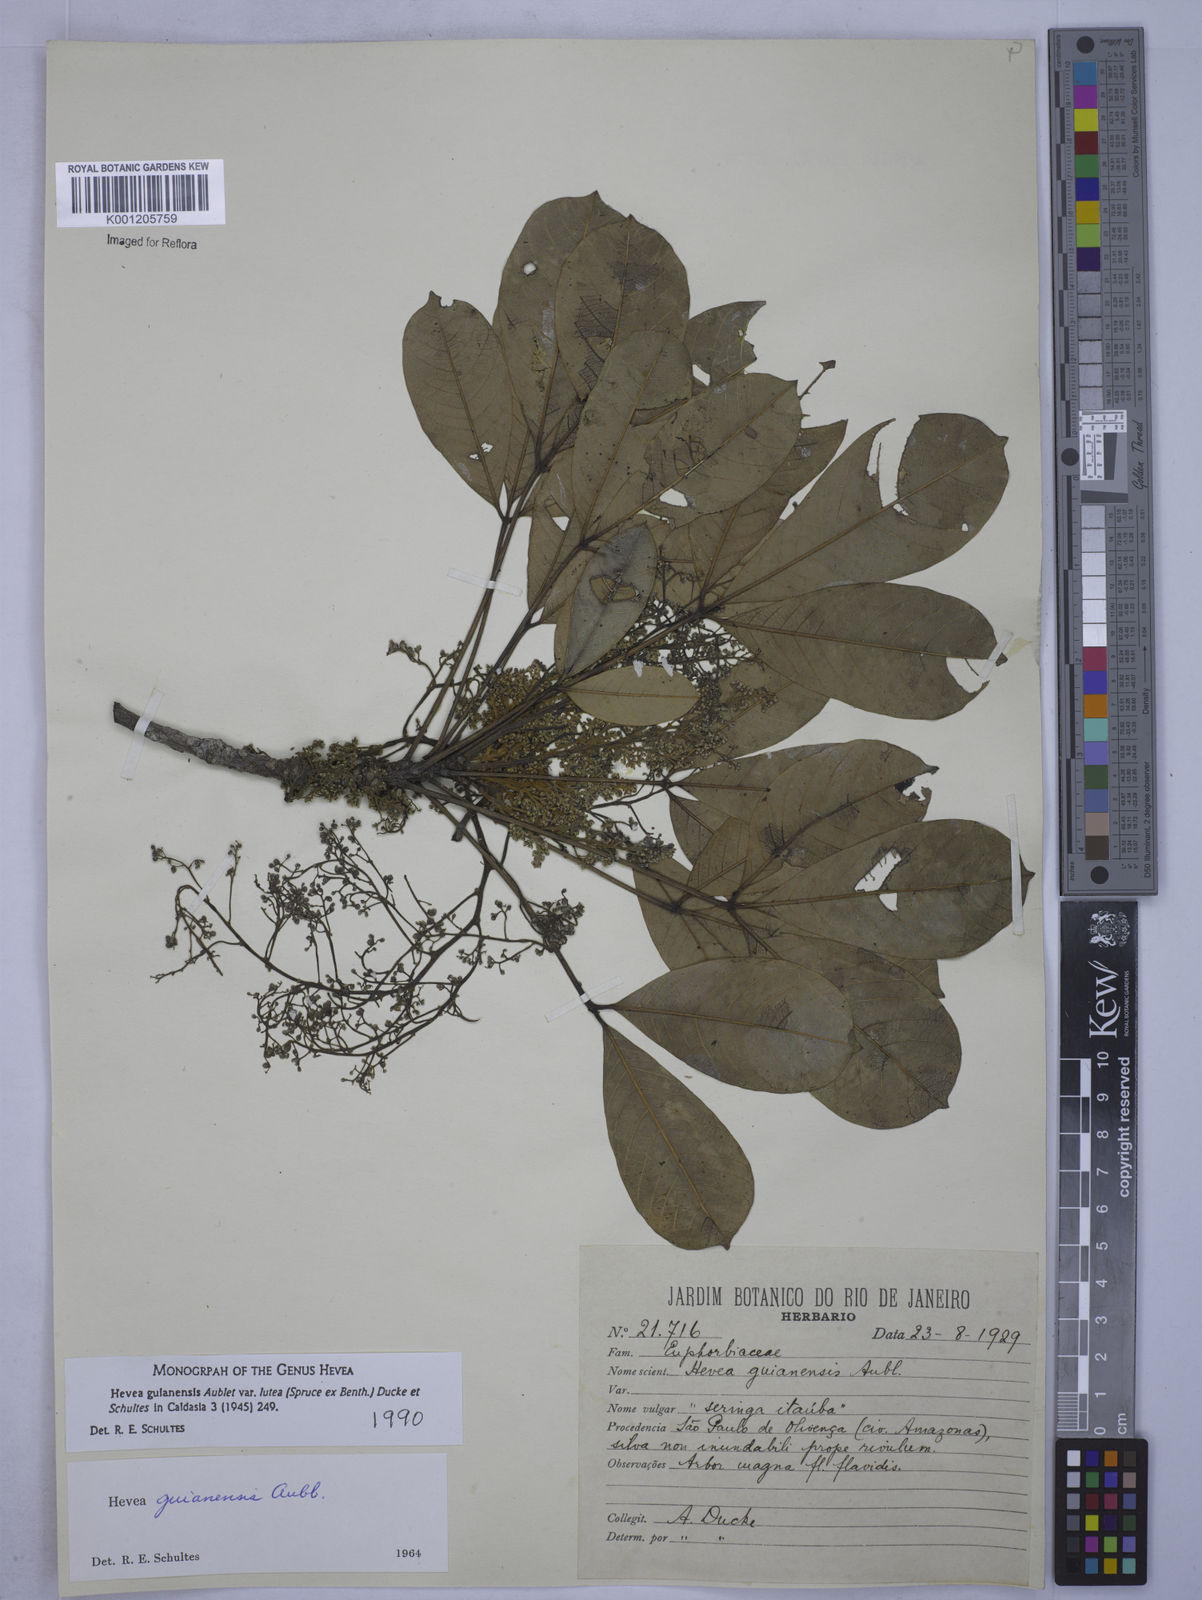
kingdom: Plantae
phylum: Tracheophyta
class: Magnoliopsida
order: Malpighiales
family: Euphorbiaceae
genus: Hevea
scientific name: Hevea guianensis
